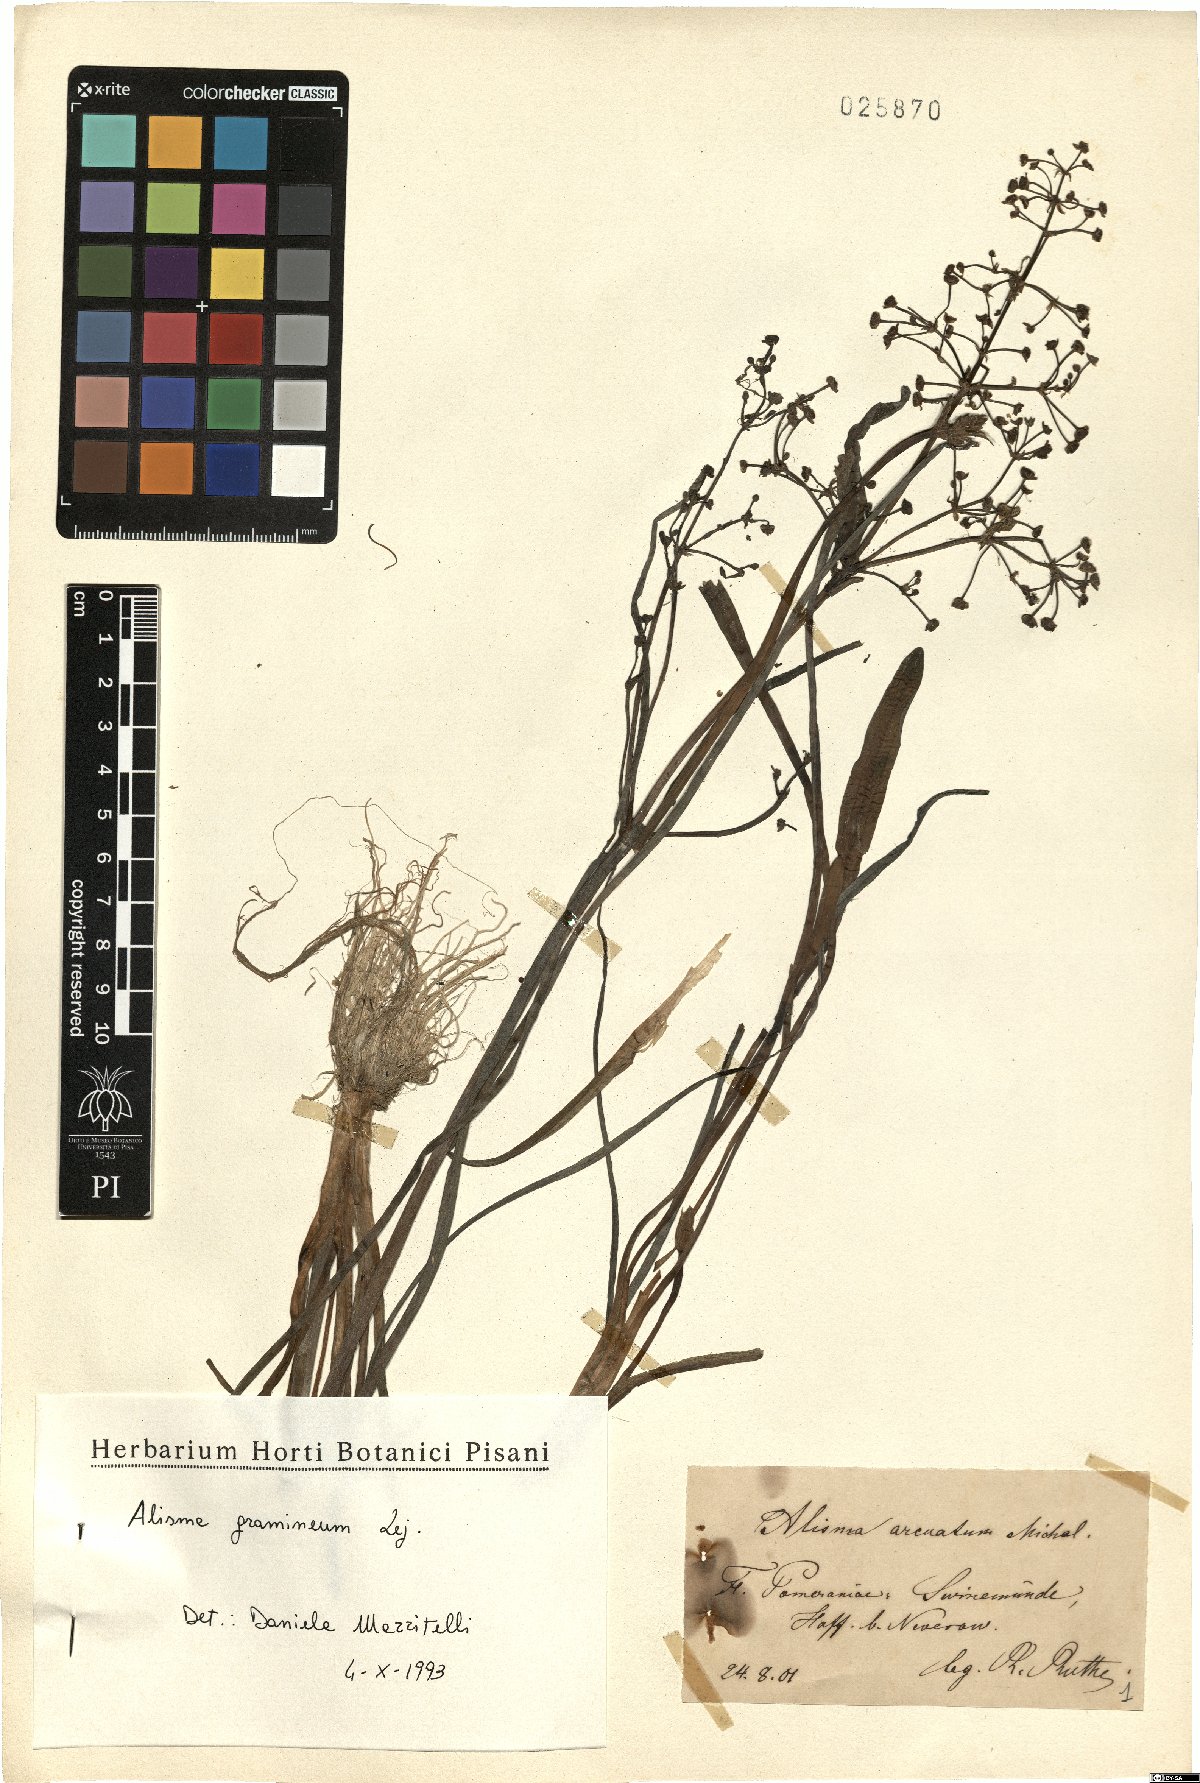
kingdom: Plantae
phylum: Tracheophyta
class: Liliopsida
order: Alismatales
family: Alismataceae
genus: Alisma
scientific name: Alisma gramineum
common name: Ribbon-leaved water-plantain
